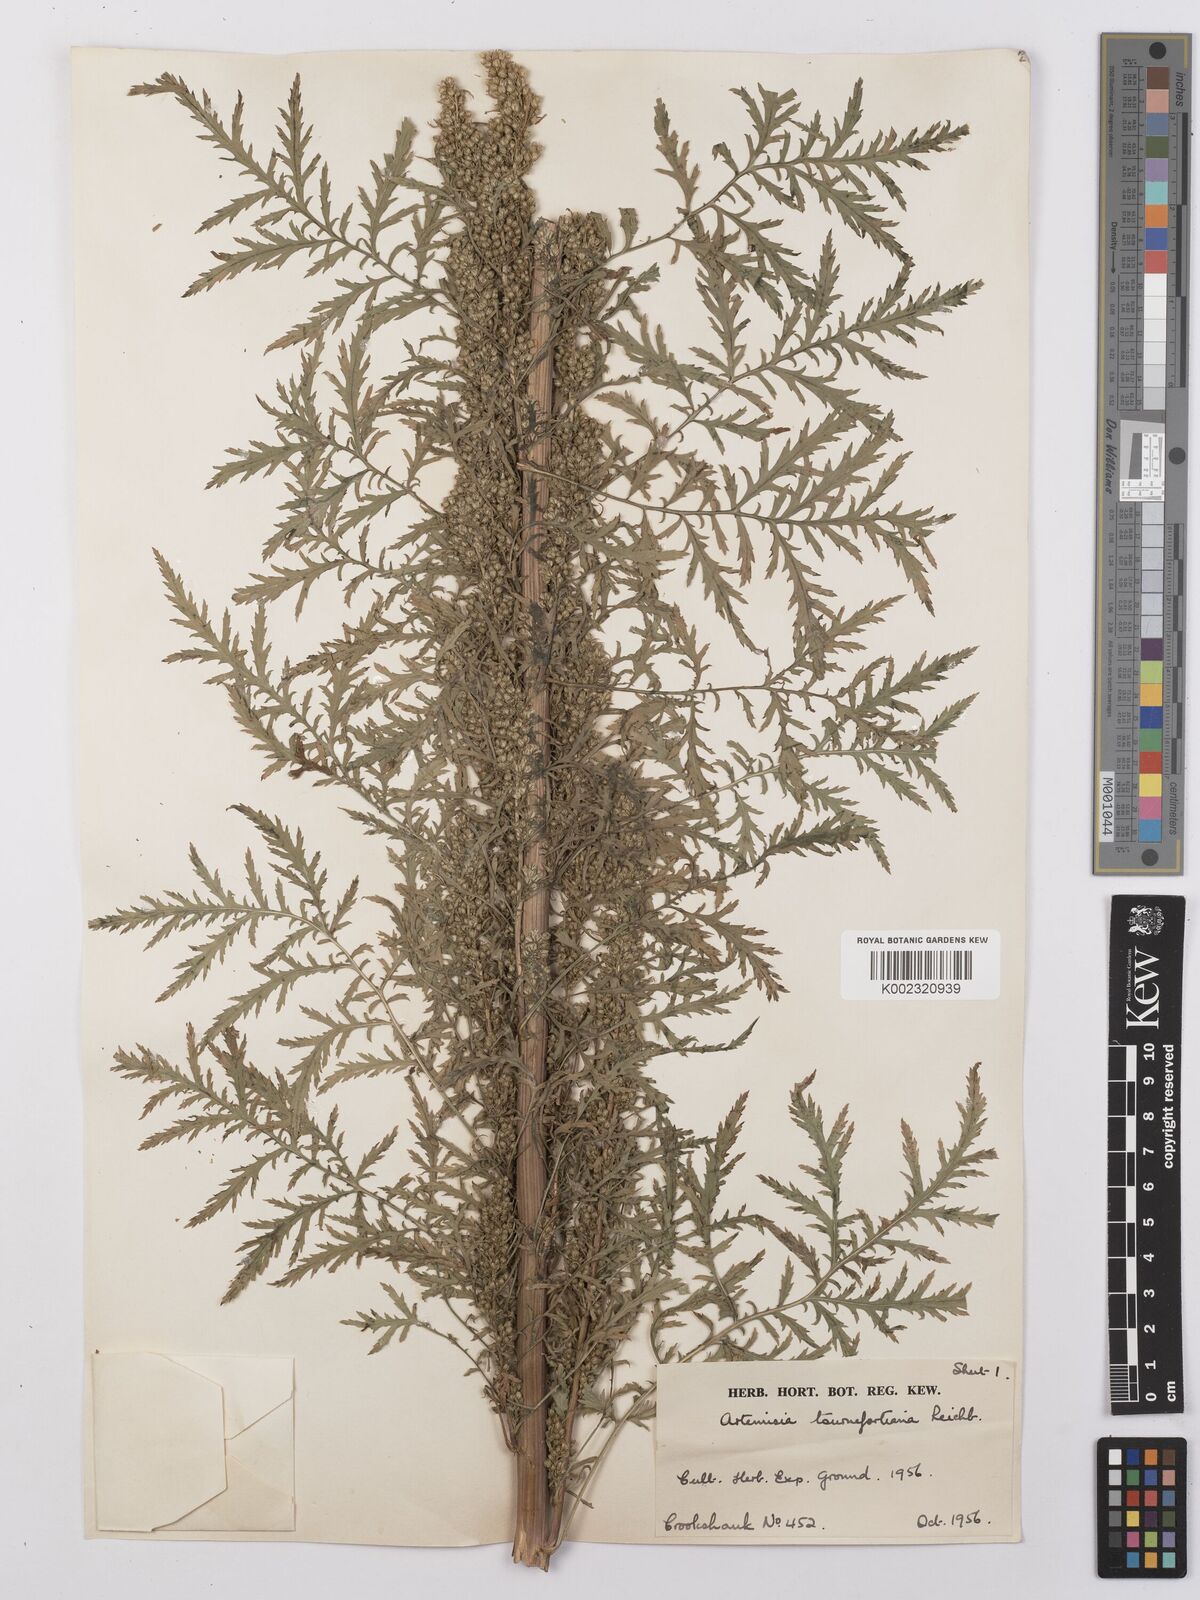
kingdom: Plantae
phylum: Tracheophyta
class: Magnoliopsida
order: Asterales
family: Asteraceae
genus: Artemisia
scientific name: Artemisia tournefortiana
